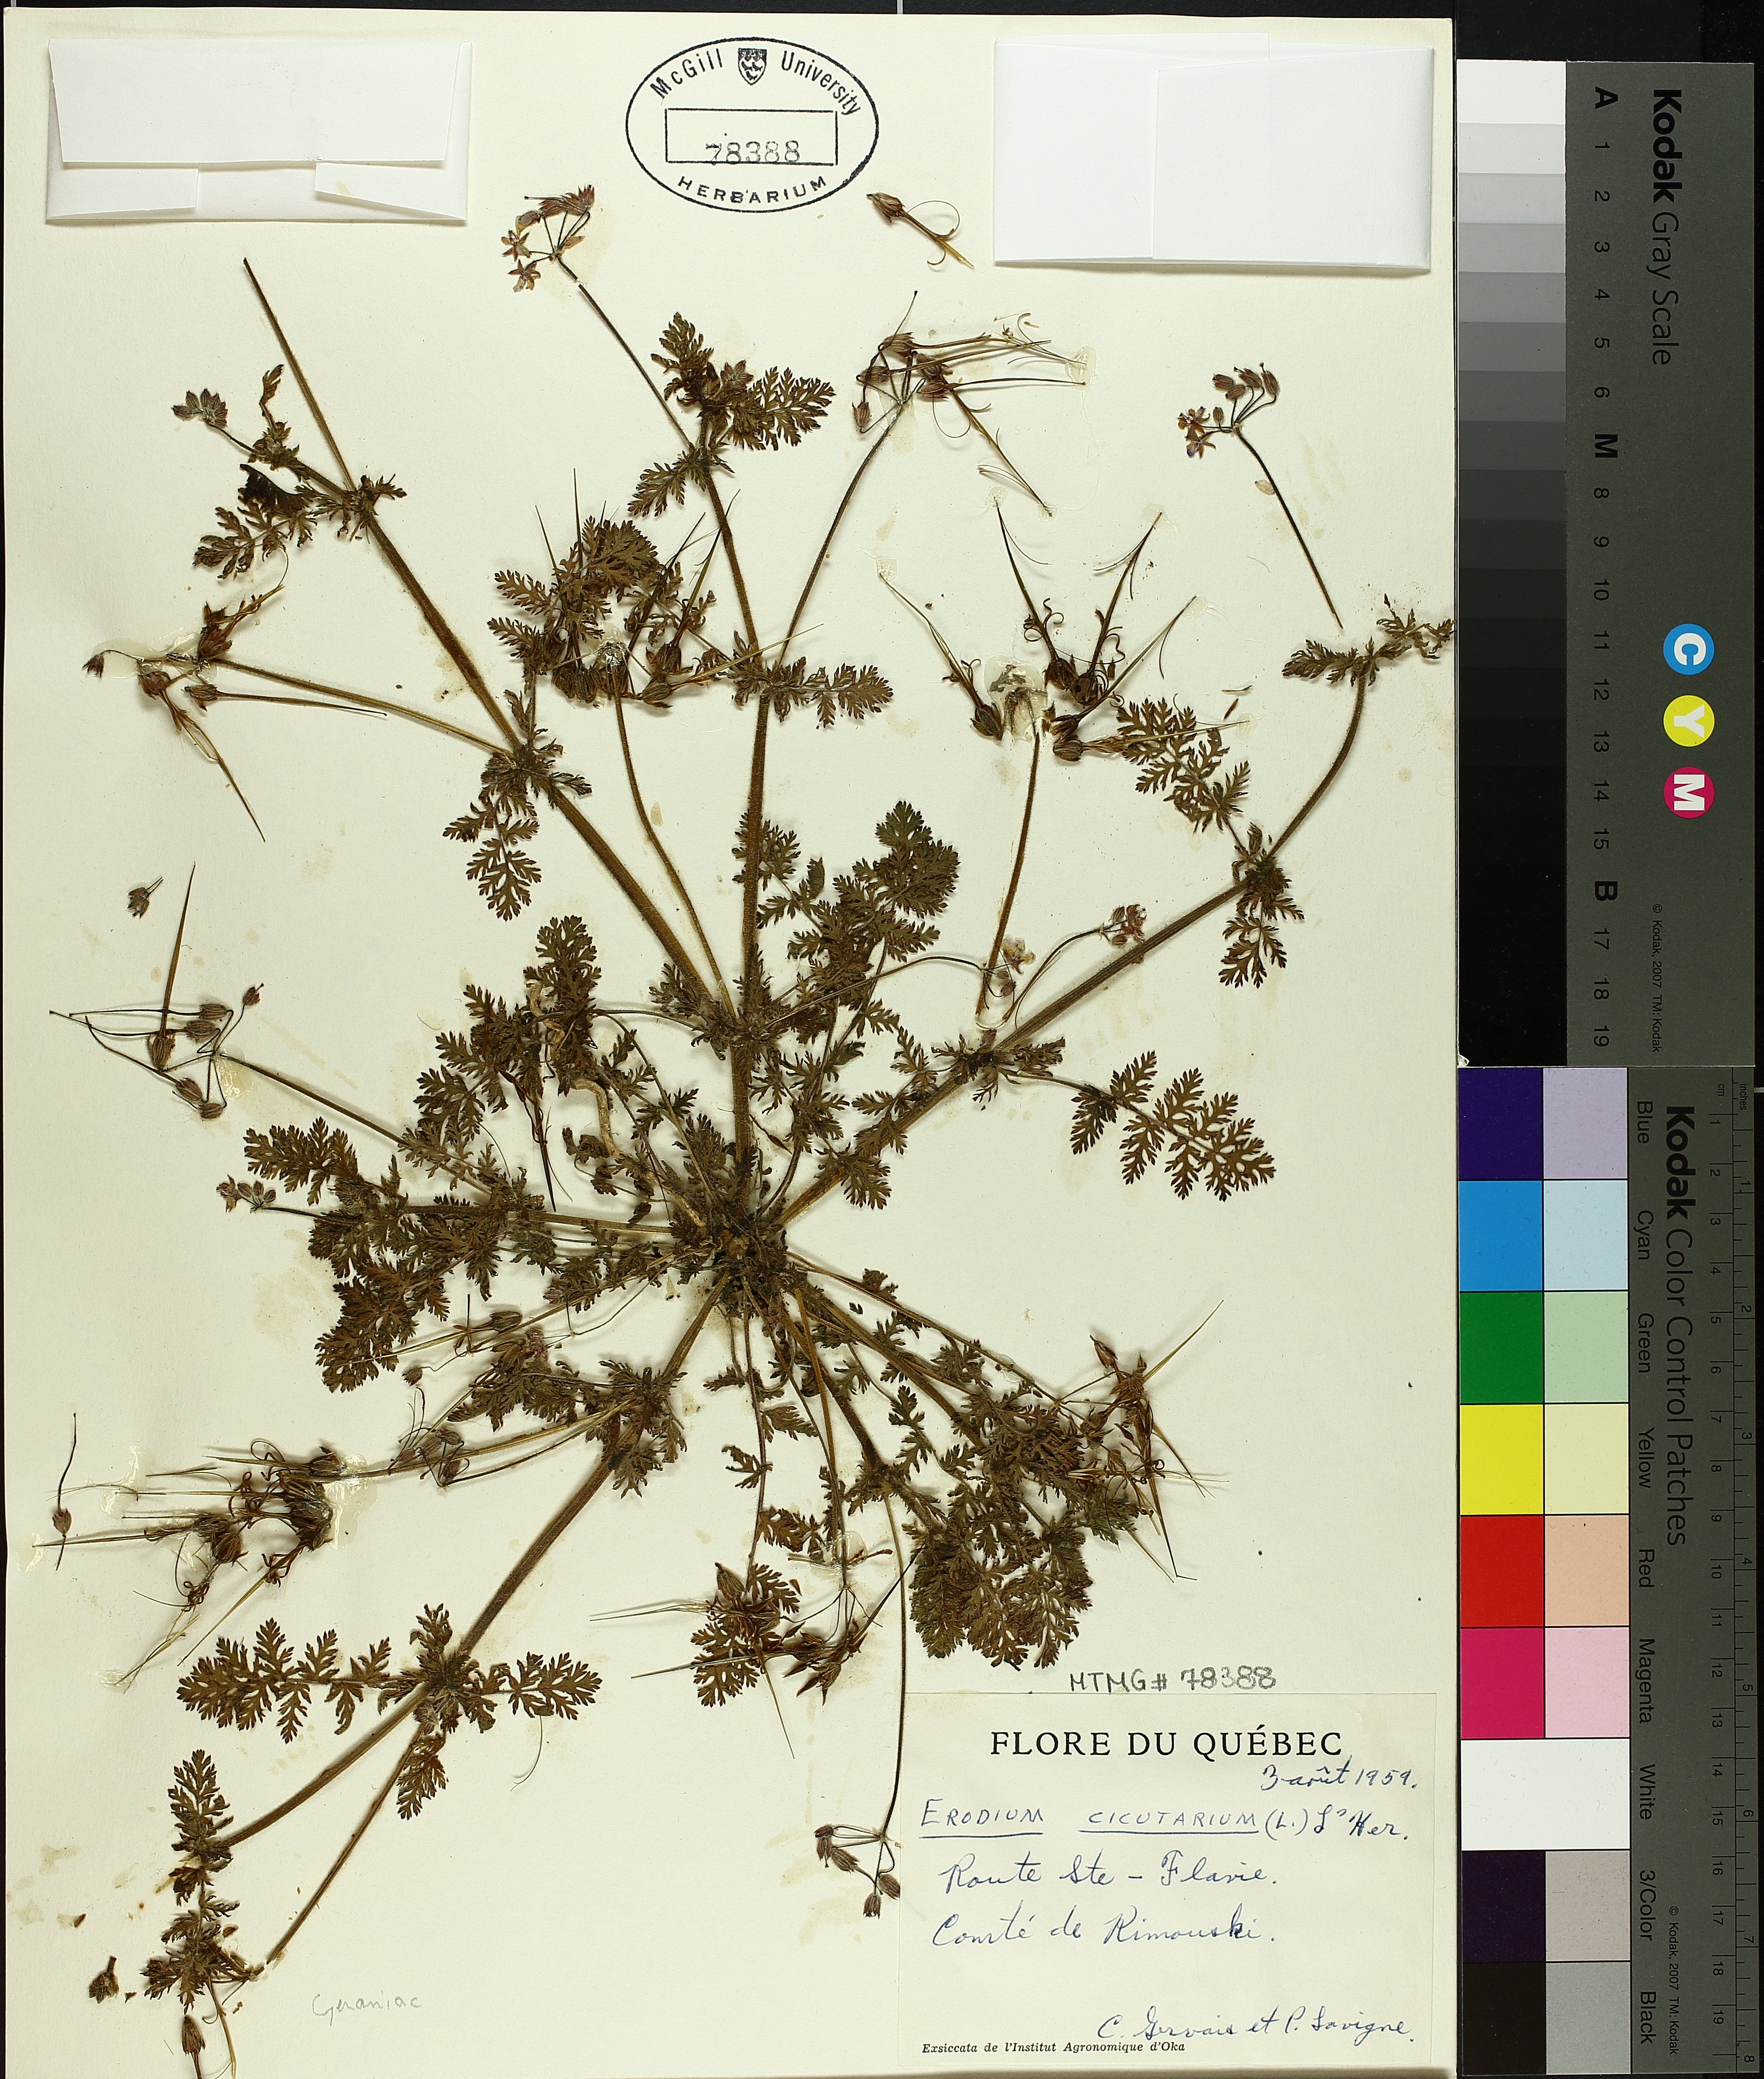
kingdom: Plantae
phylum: Tracheophyta
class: Magnoliopsida
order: Geraniales
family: Geraniaceae
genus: Erodium
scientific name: Erodium cicutarium
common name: Common stork's-bill
